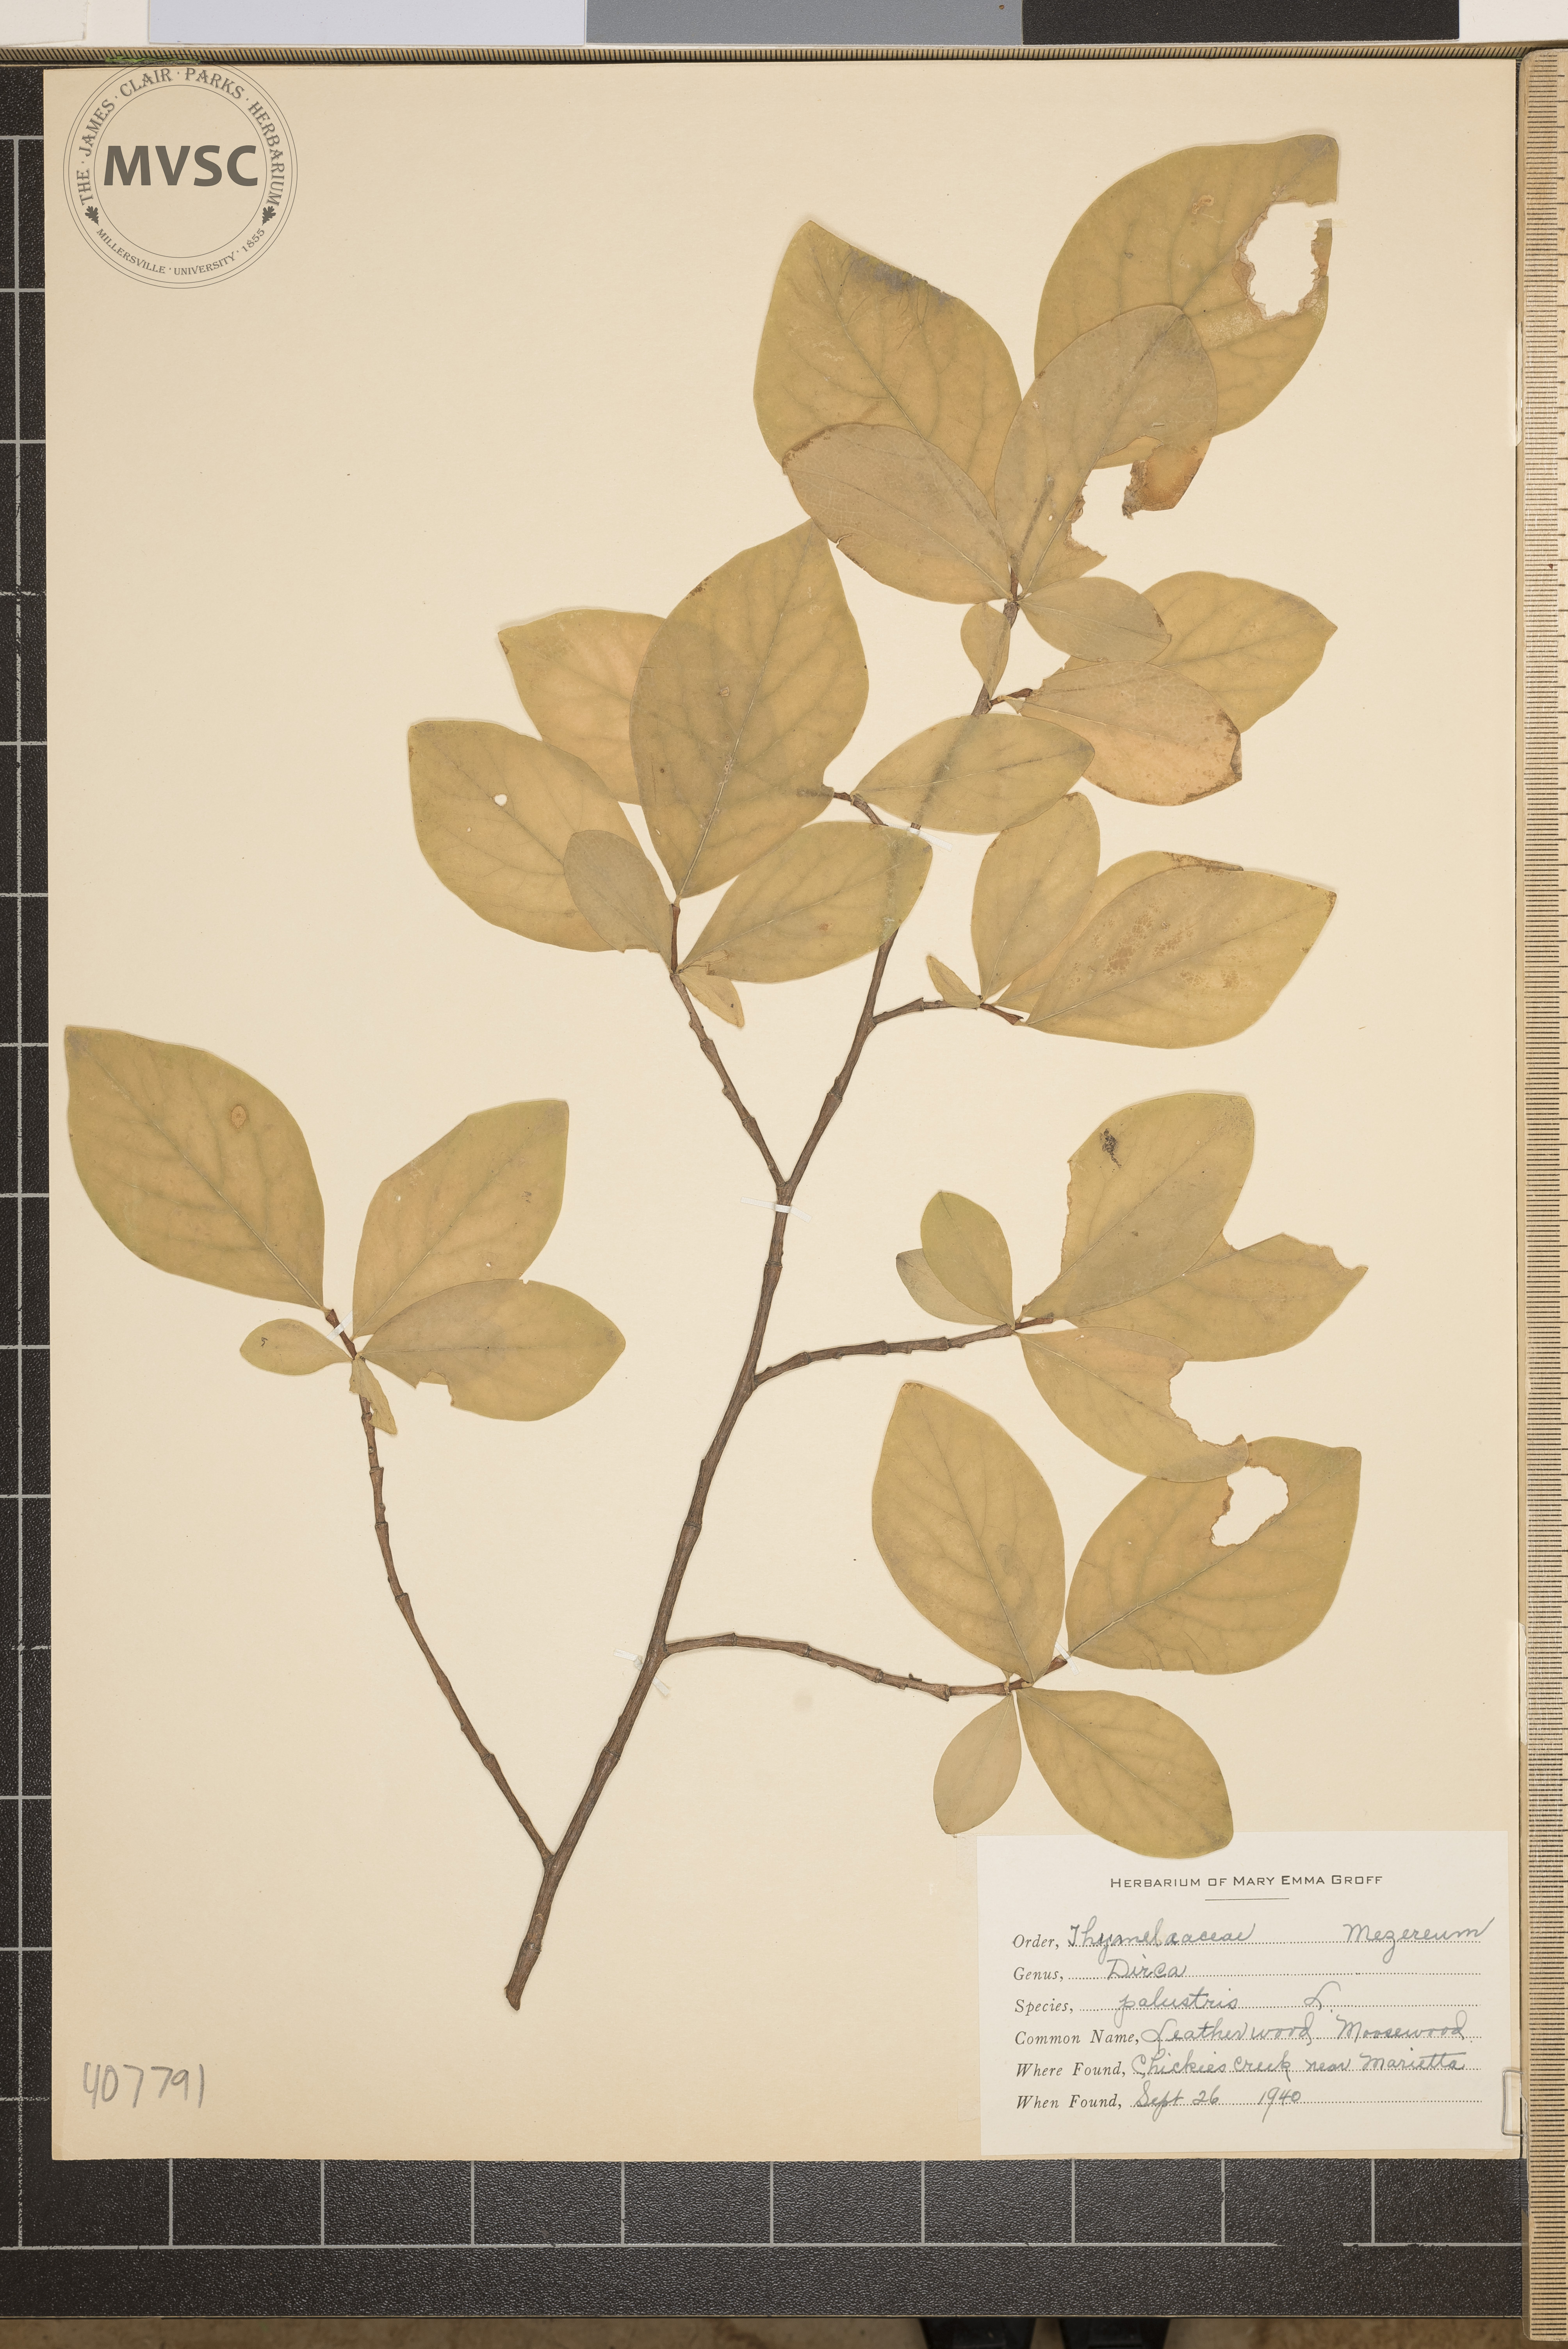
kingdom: Plantae
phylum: Tracheophyta
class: Magnoliopsida
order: Malvales
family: Thymelaeaceae
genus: Dirca
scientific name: Dirca palustris
